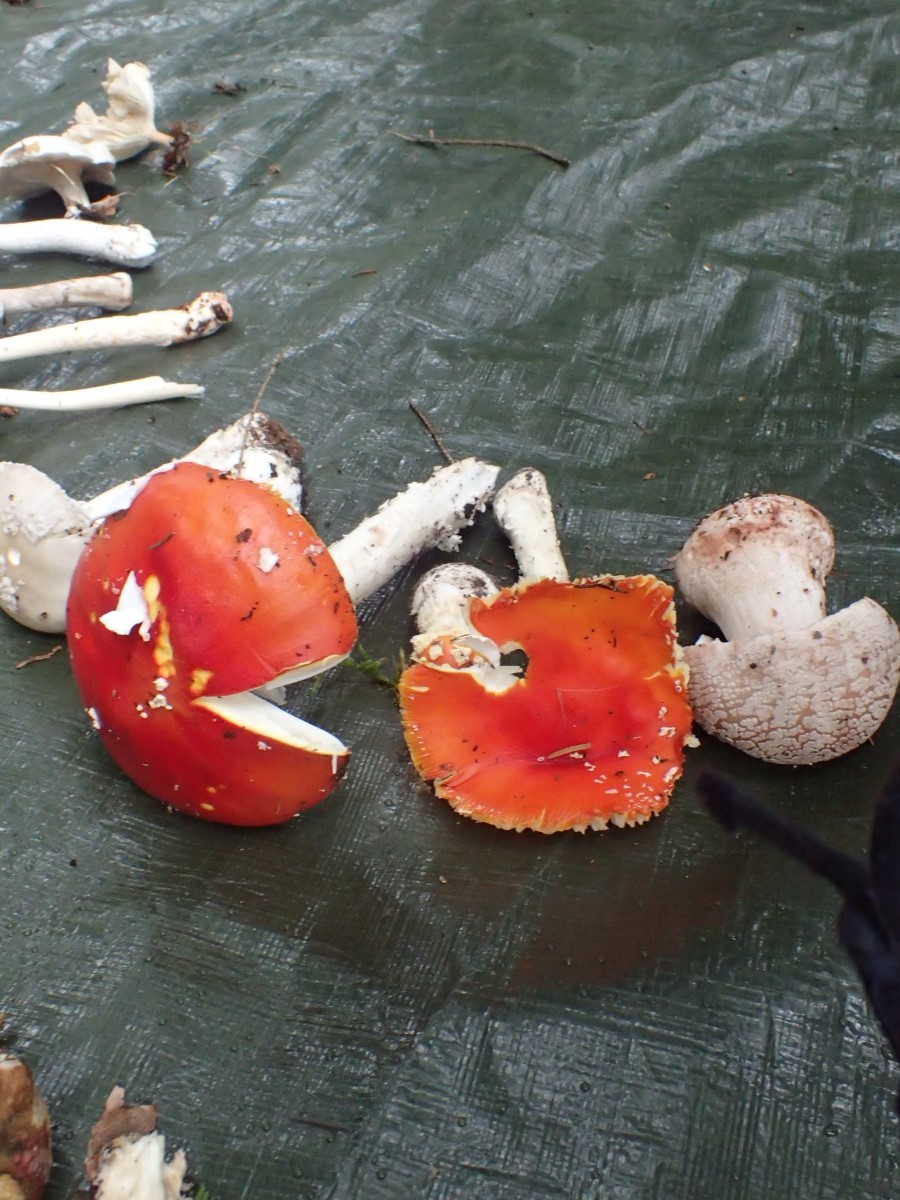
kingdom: Fungi
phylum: Basidiomycota
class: Agaricomycetes
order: Agaricales
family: Amanitaceae
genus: Amanita
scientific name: Amanita muscaria
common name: rød fluesvamp
